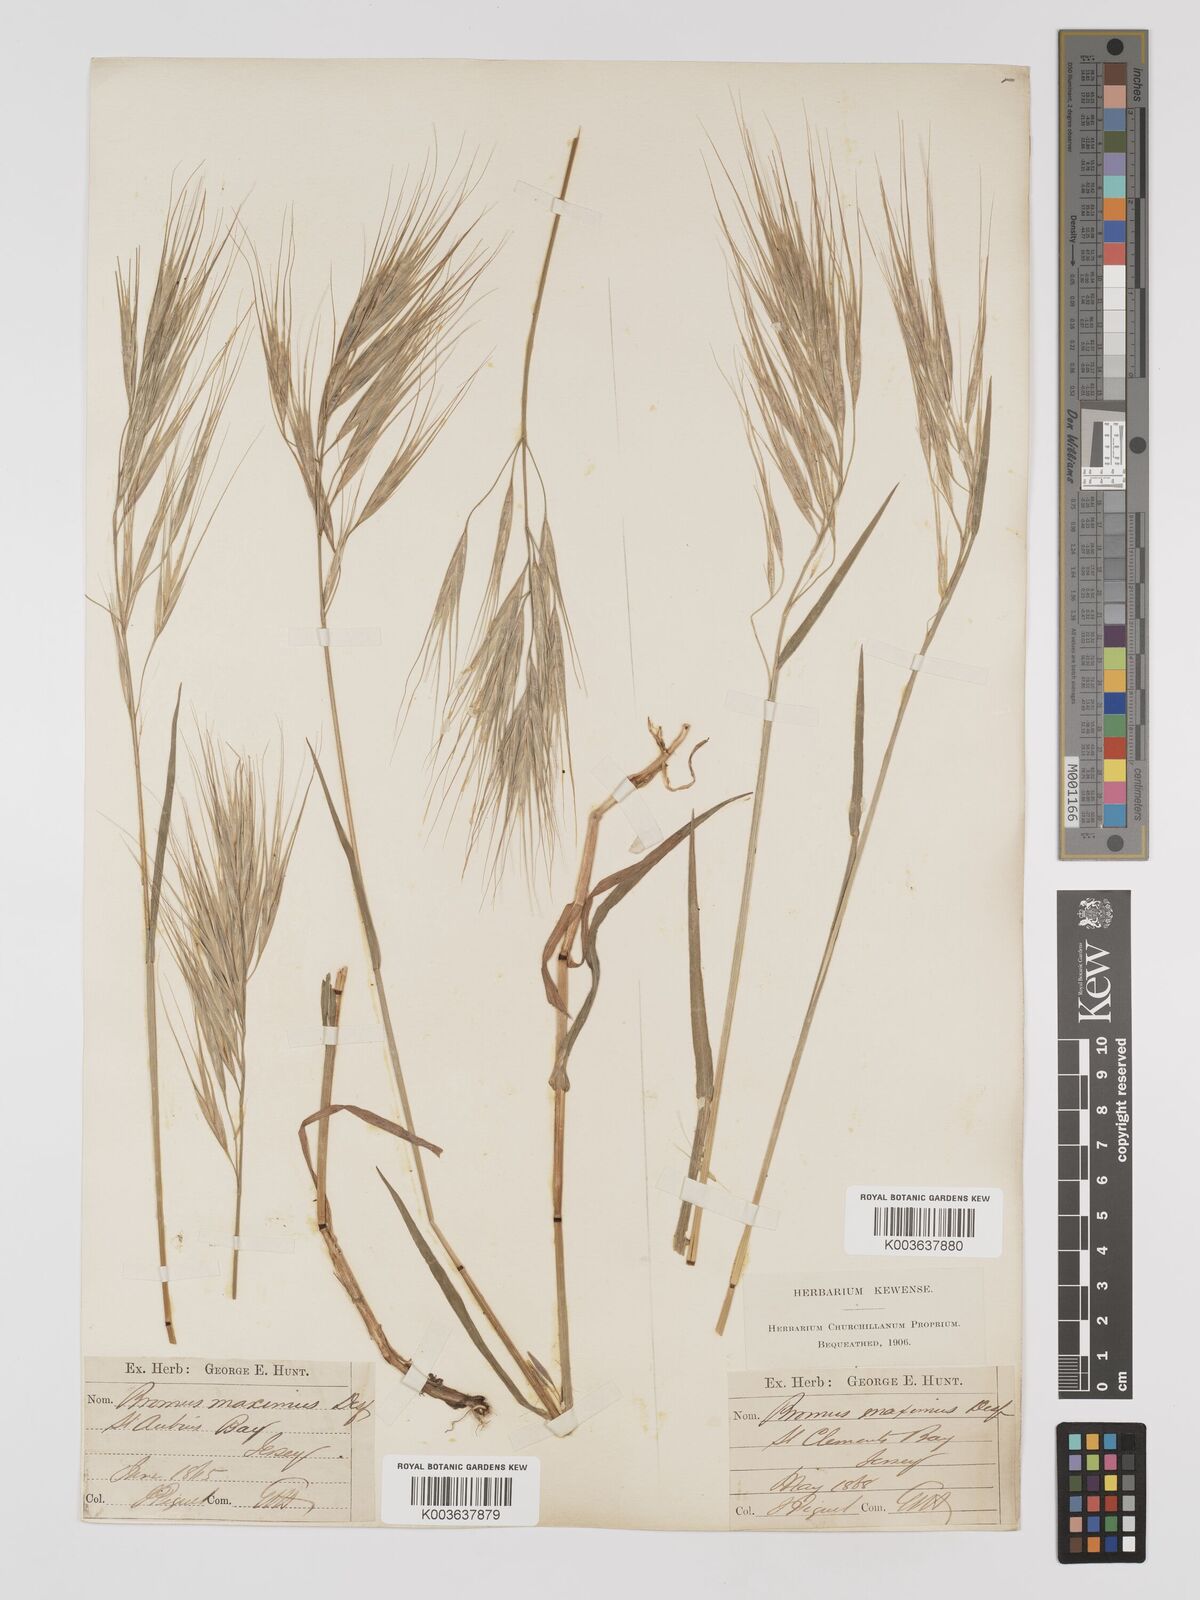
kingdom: Plantae
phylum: Tracheophyta
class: Liliopsida
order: Poales
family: Poaceae
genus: Bromus
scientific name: Bromus
